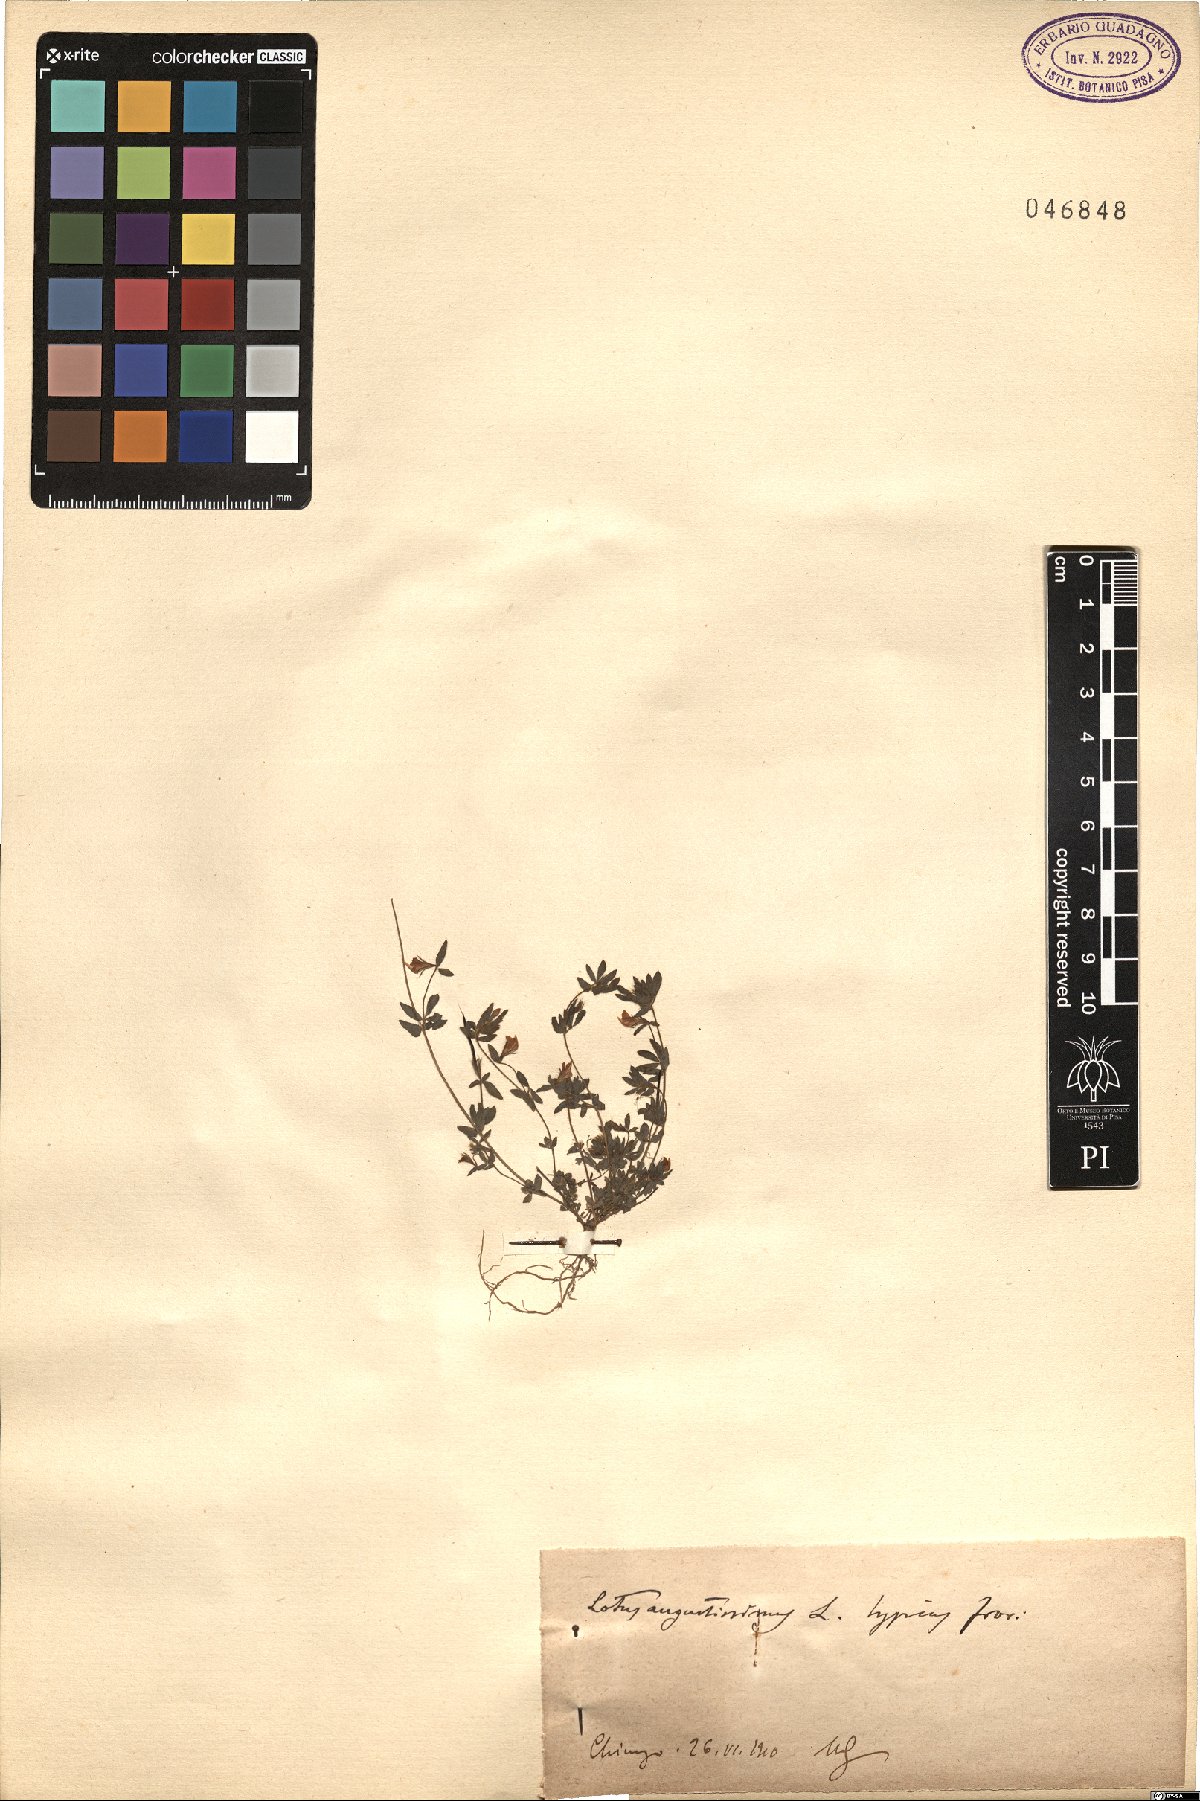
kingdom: Plantae
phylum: Tracheophyta
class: Magnoliopsida
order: Fabales
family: Fabaceae
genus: Lotus
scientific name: Lotus angustissimus
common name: Slender bird's-foot trefoil
